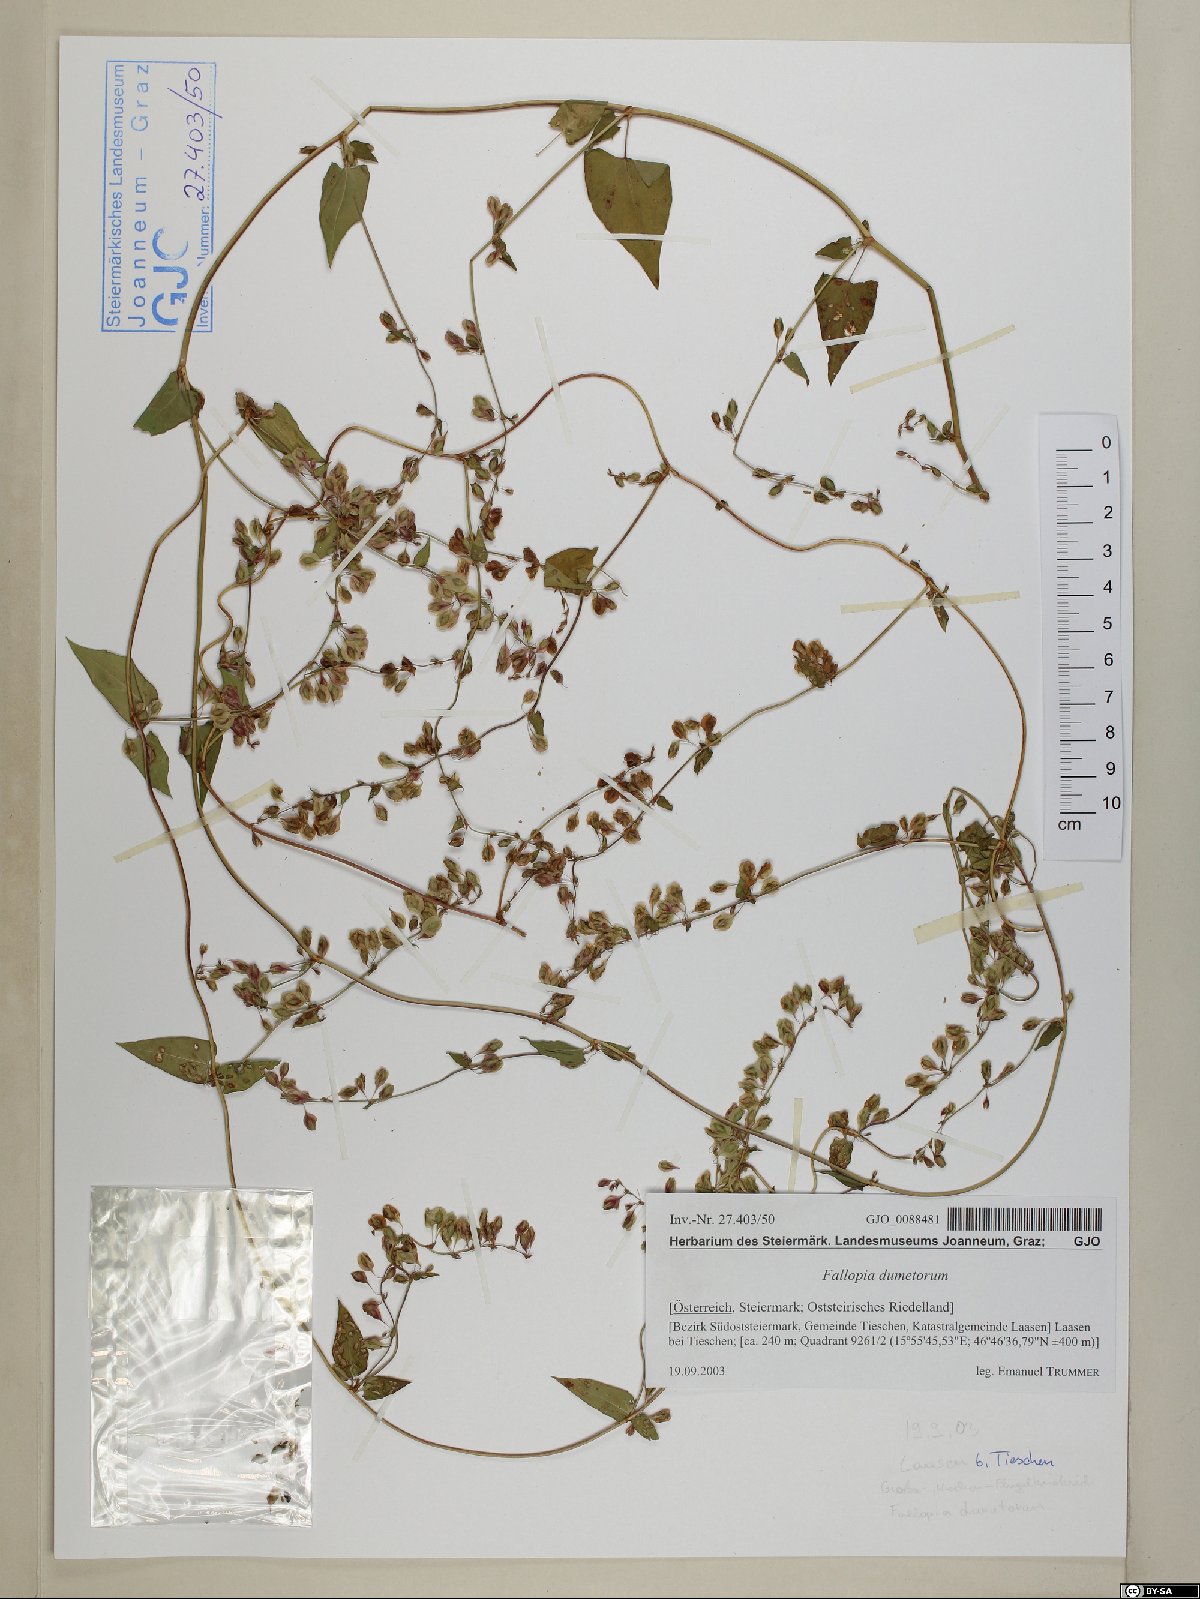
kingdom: Plantae
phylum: Tracheophyta
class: Magnoliopsida
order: Caryophyllales
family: Polygonaceae
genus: Fallopia
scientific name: Fallopia dumetorum
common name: Copse-bindweed
